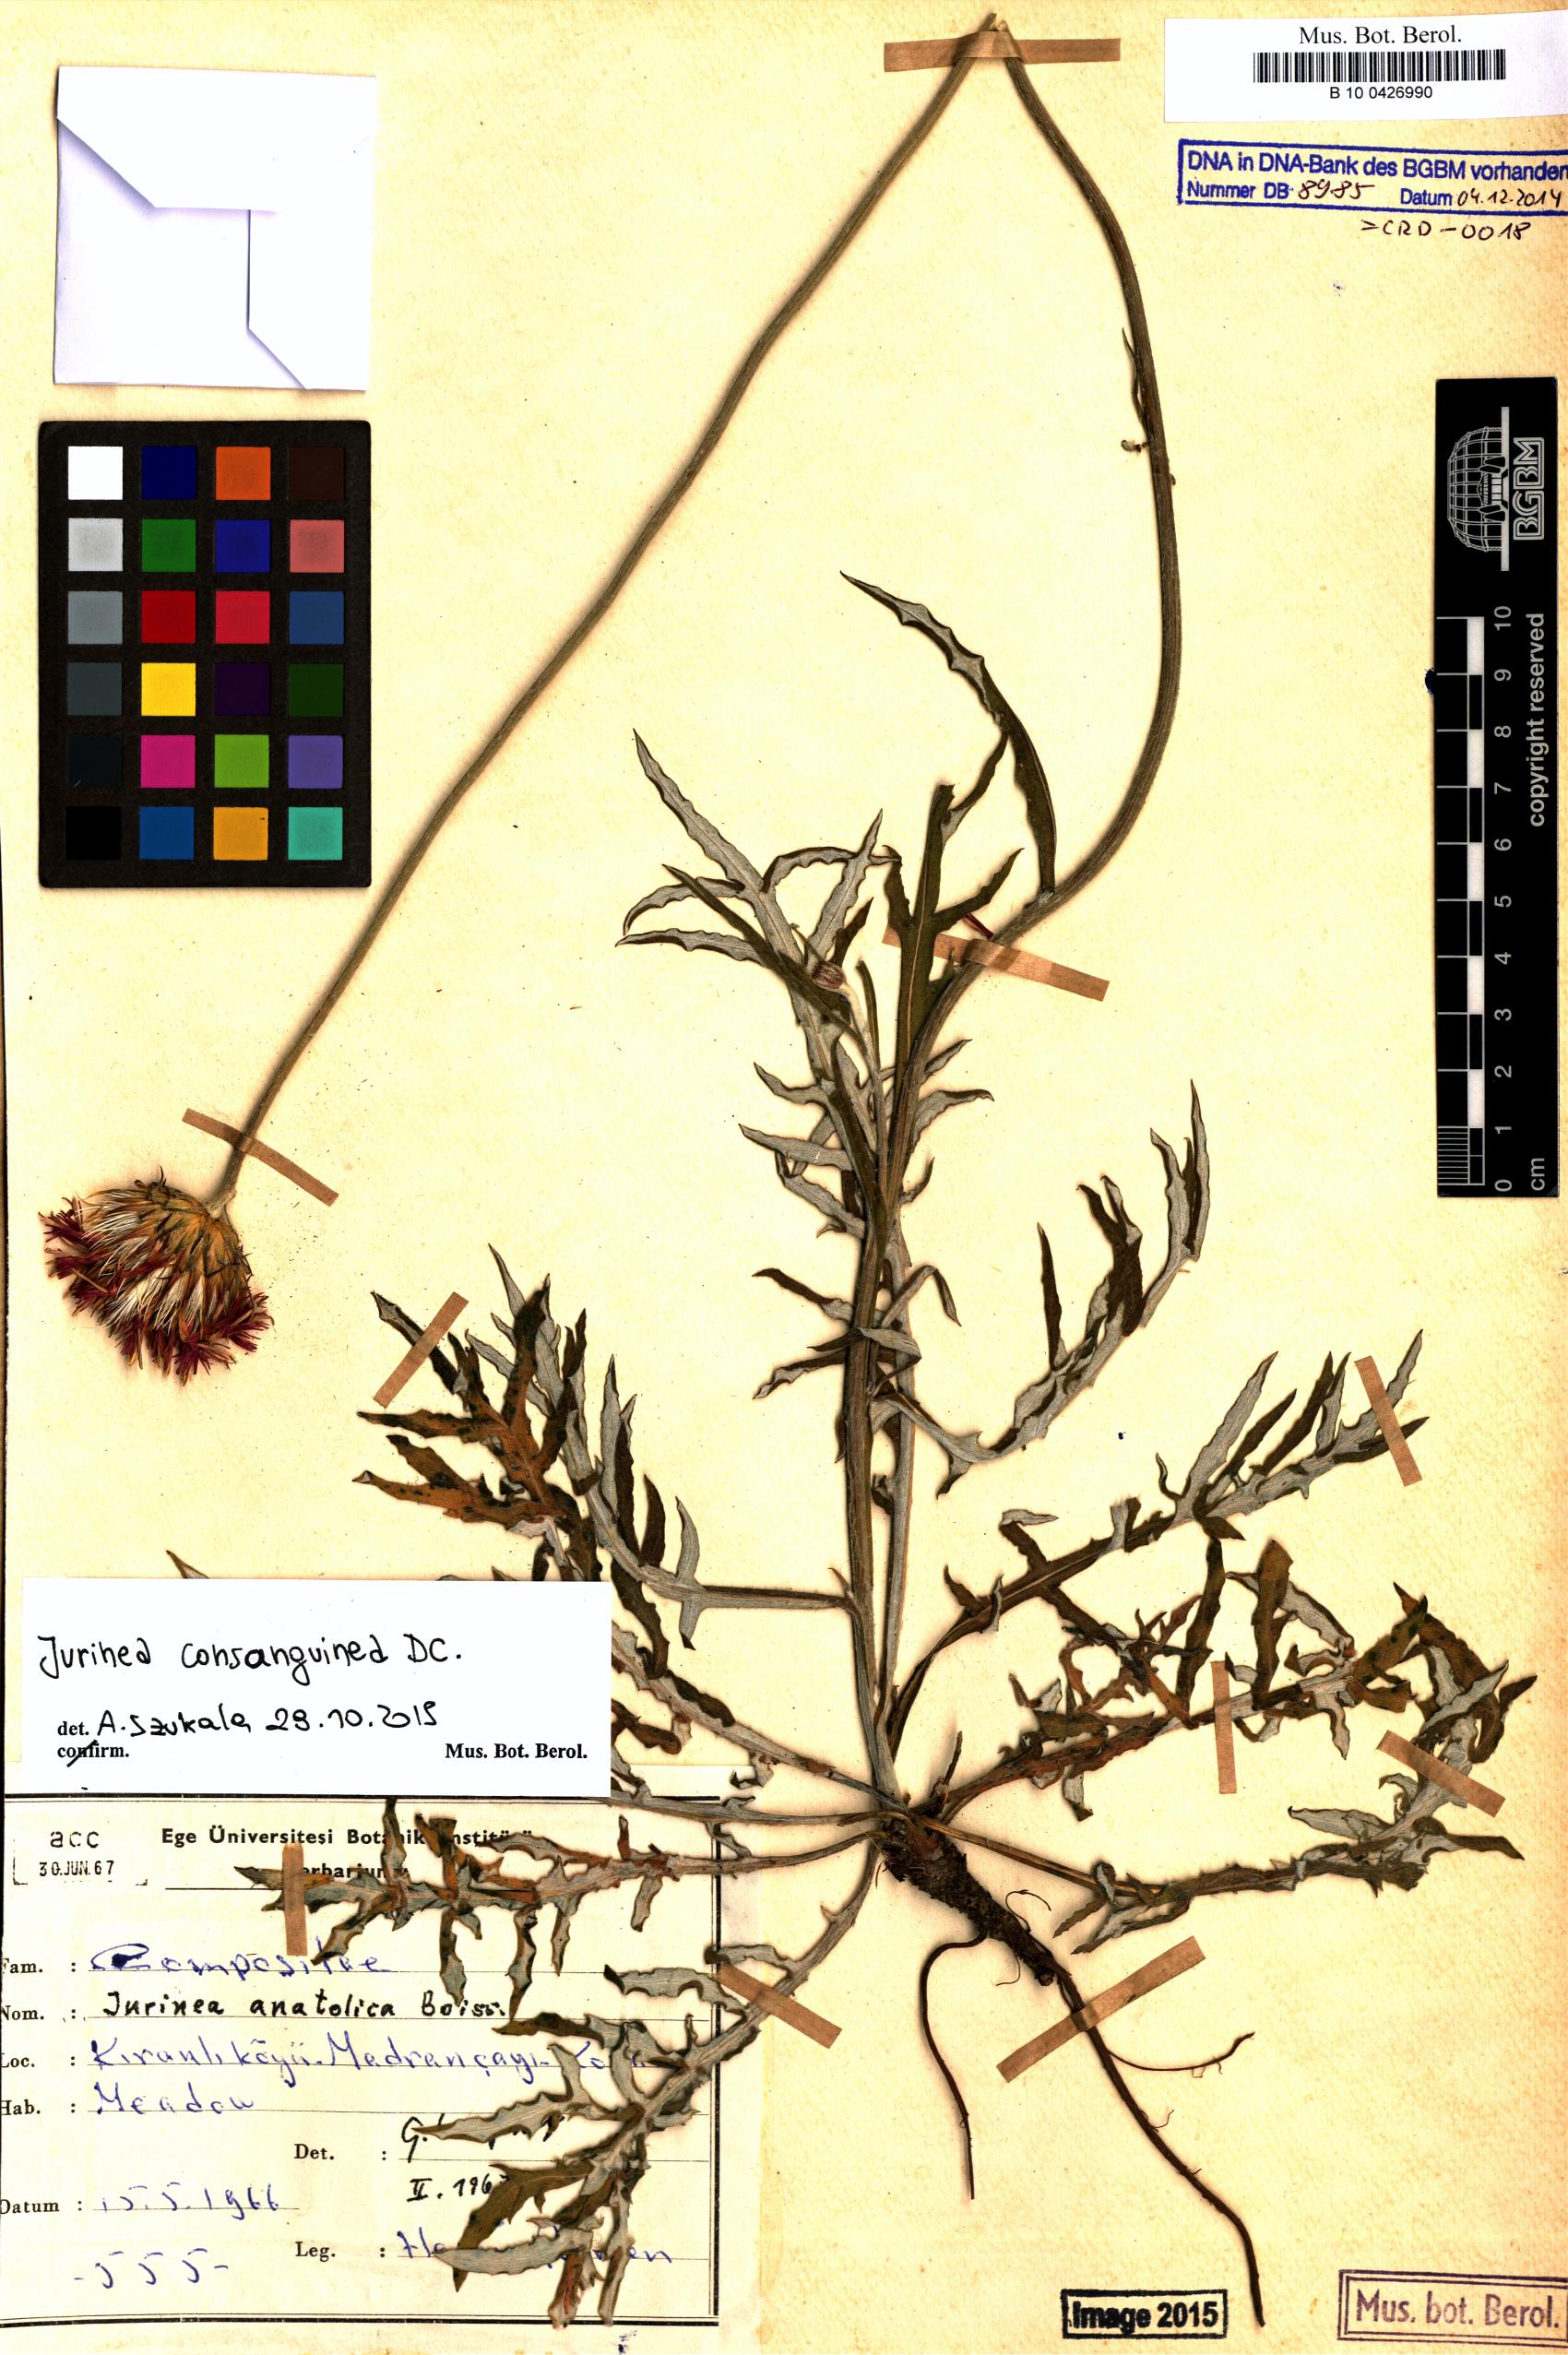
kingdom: Plantae
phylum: Tracheophyta
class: Magnoliopsida
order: Asterales
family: Asteraceae
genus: Jurinea
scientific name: Jurinea consanguinea
